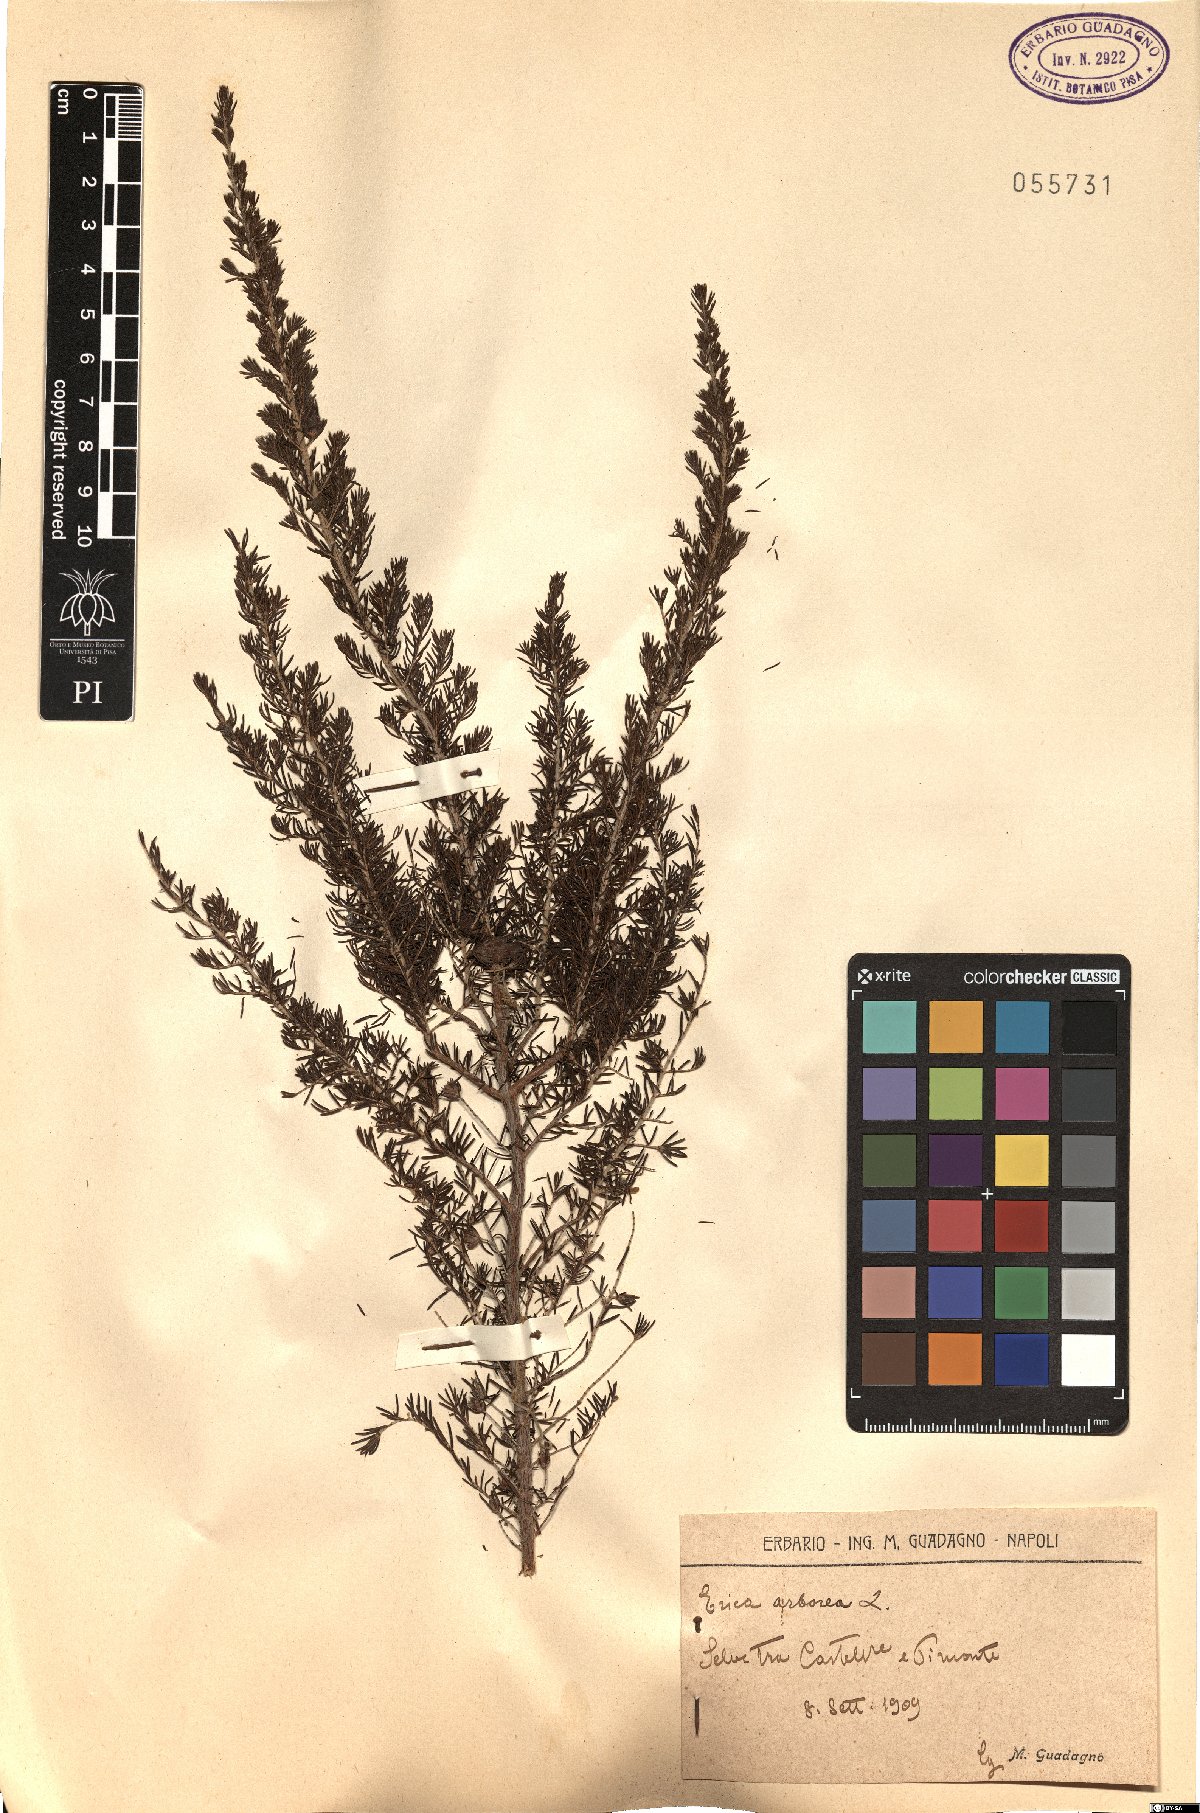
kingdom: Plantae
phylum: Tracheophyta
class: Magnoliopsida
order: Ericales
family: Ericaceae
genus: Erica
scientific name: Erica arborea
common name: Tree heath
